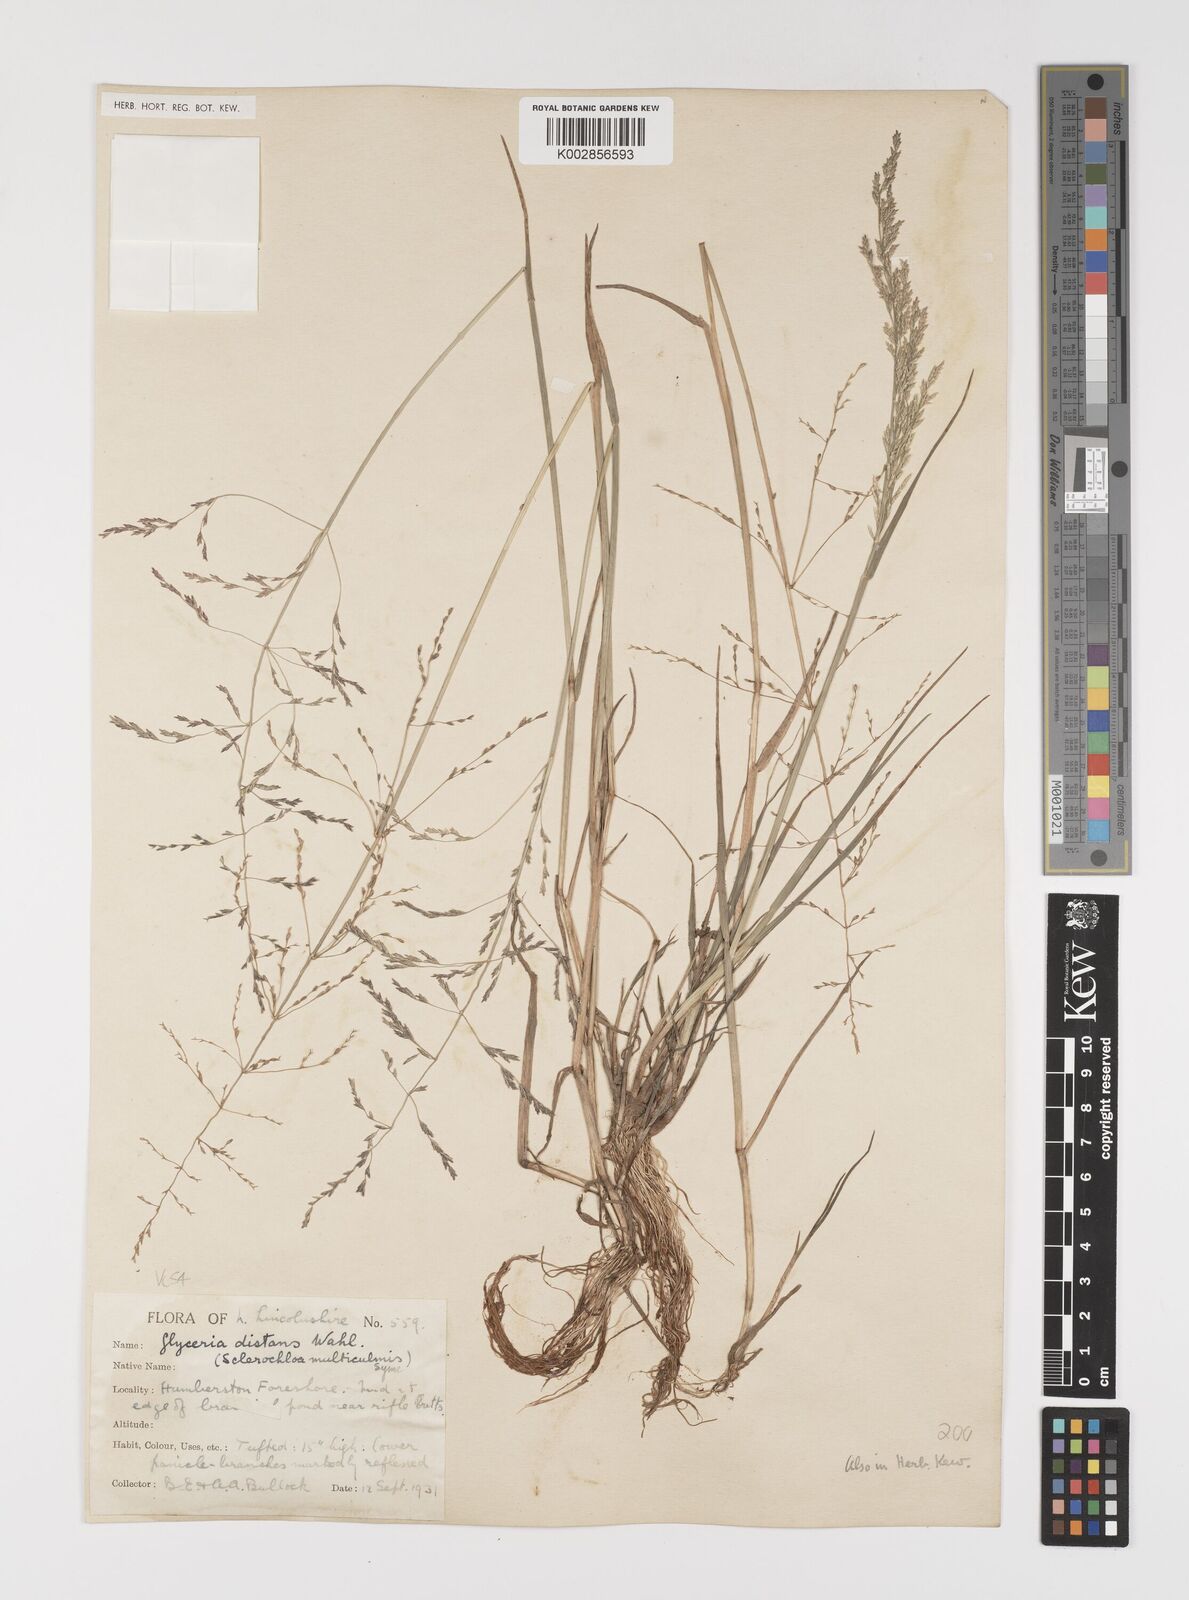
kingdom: Plantae
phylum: Tracheophyta
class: Liliopsida
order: Poales
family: Poaceae
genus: Puccinellia
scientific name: Puccinellia distans
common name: Weeping alkaligrass
